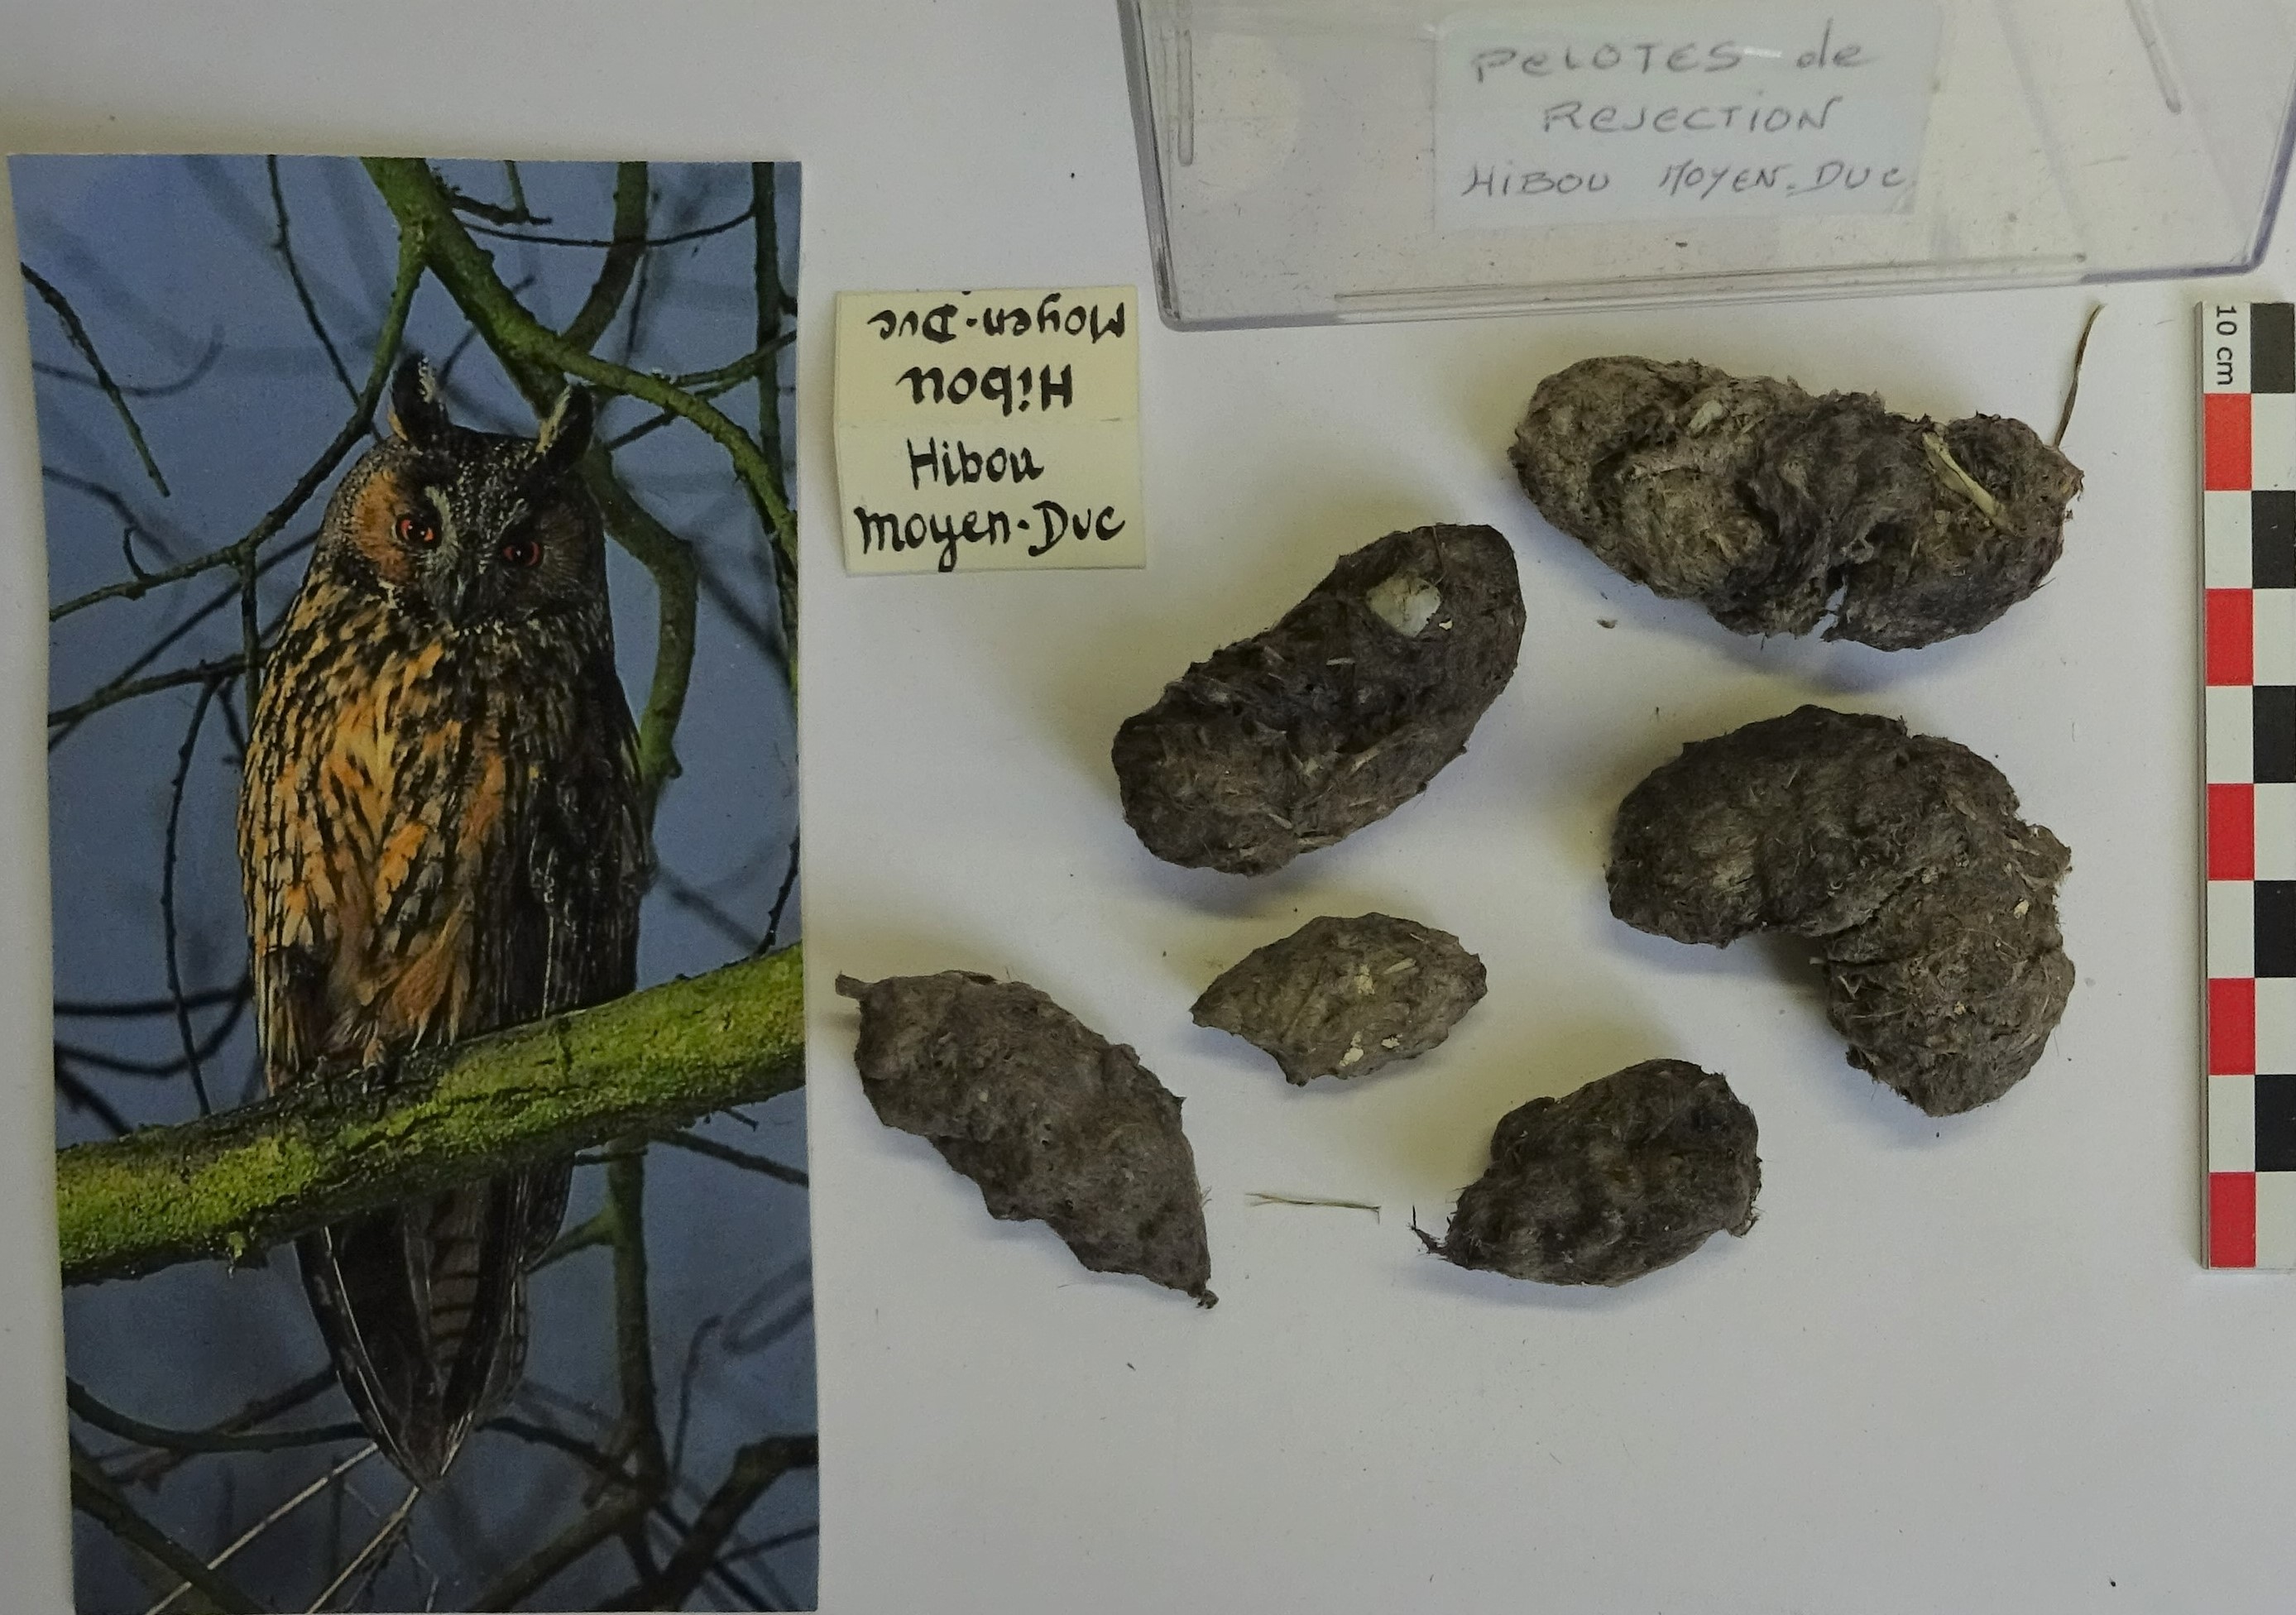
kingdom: Animalia
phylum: Chordata
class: Aves
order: Strigiformes
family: Strigidae
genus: Asio
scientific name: Asio otus
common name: Long-eared owl
